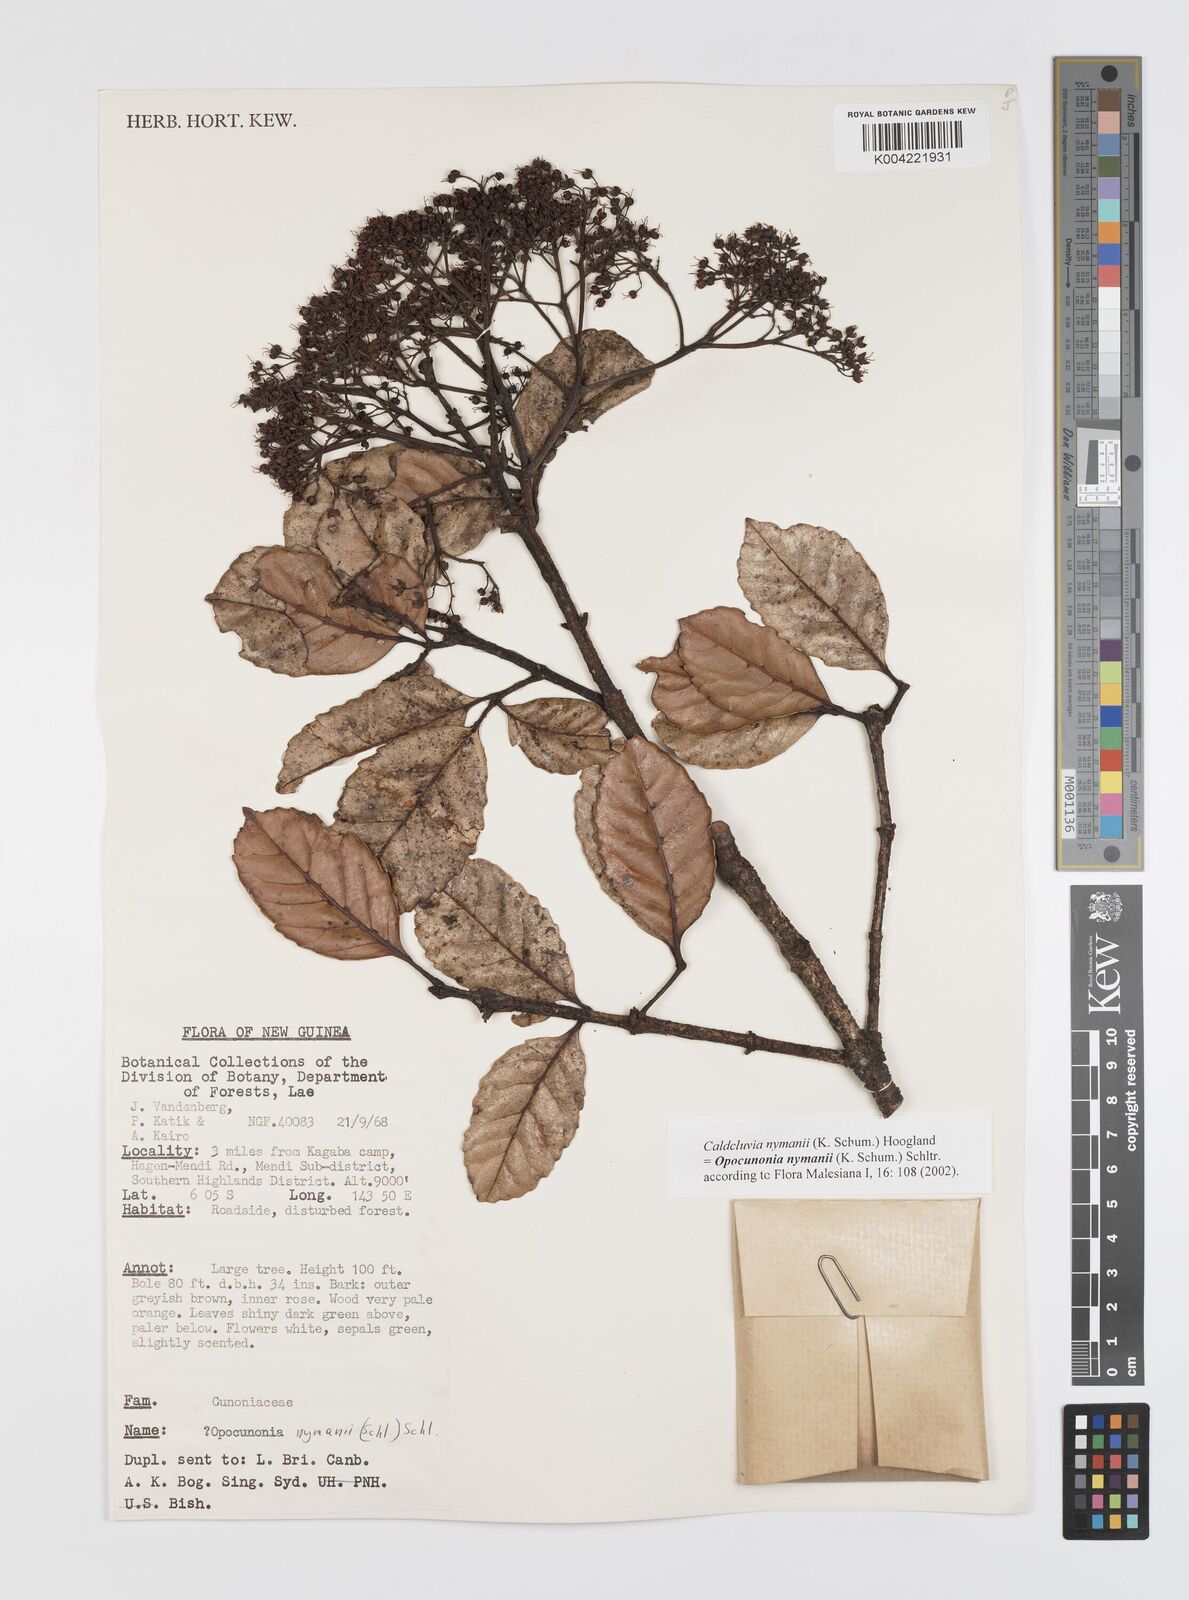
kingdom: Plantae
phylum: Tracheophyta
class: Magnoliopsida
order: Oxalidales
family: Cunoniaceae
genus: Opocunonia
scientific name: Opocunonia nymanii
